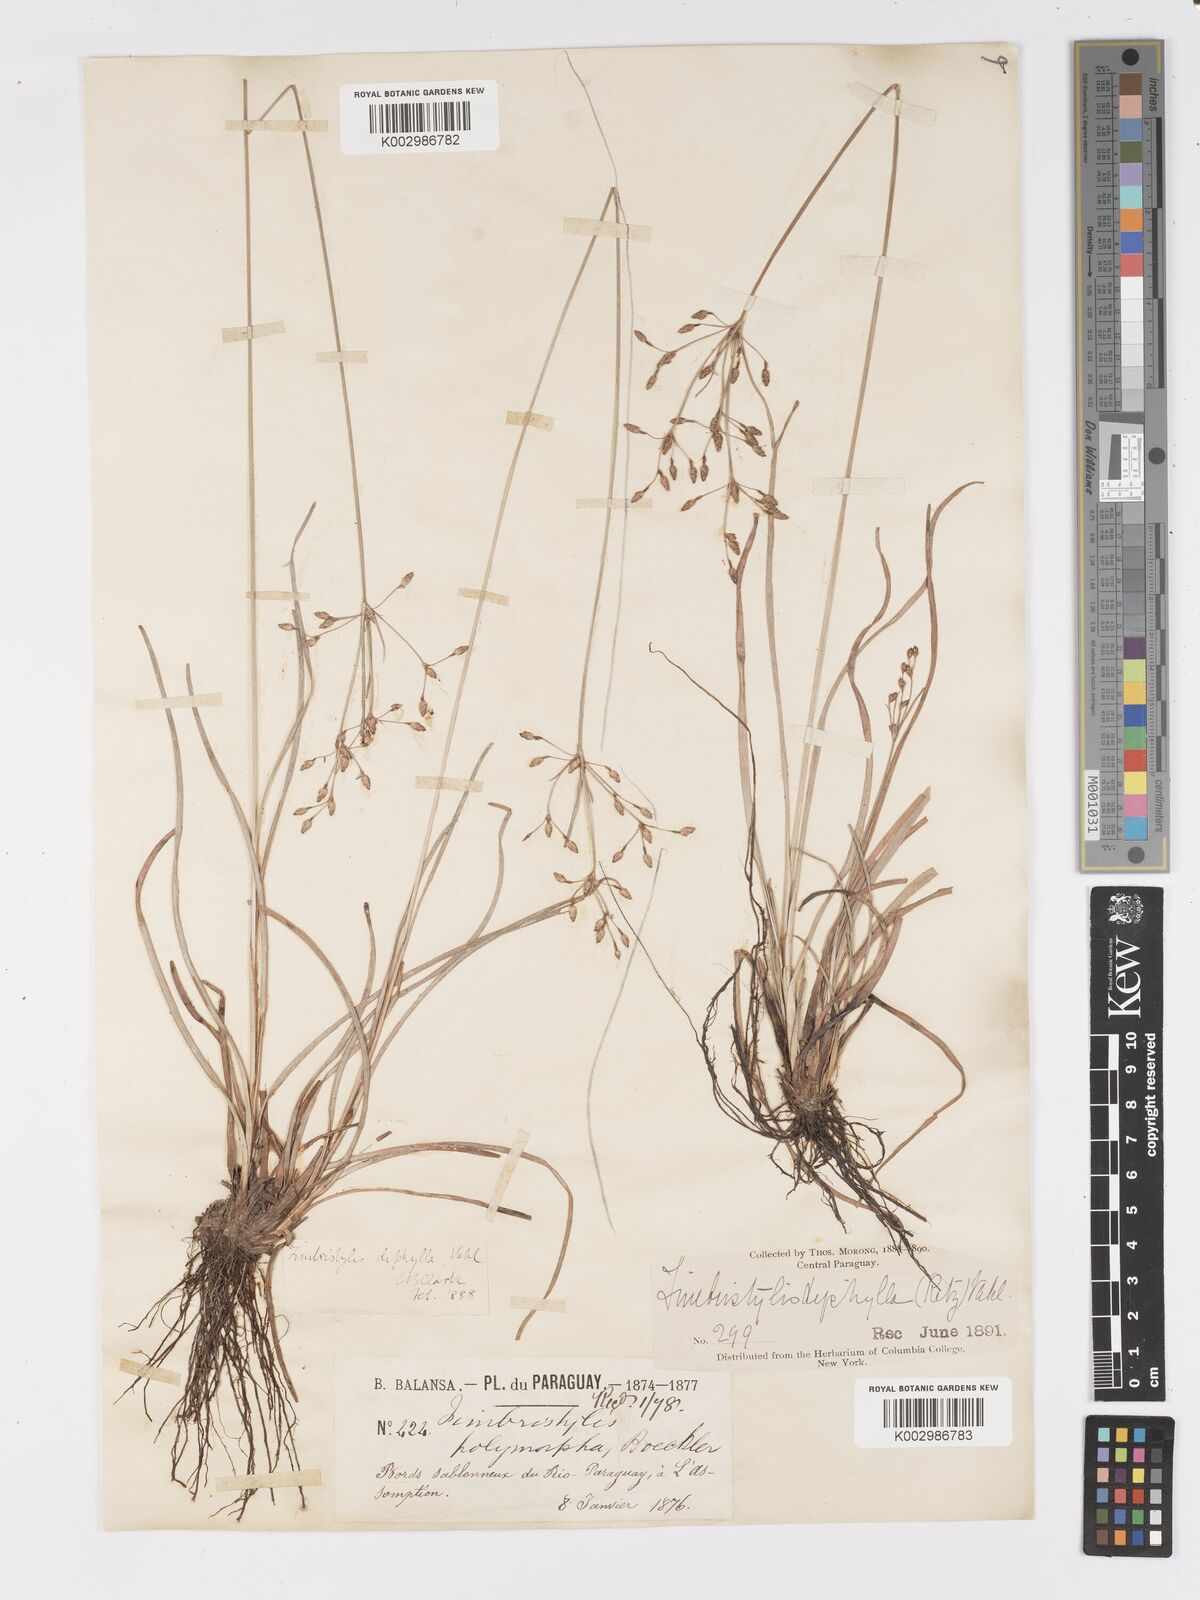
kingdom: Plantae
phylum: Tracheophyta
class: Liliopsida
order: Poales
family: Cyperaceae
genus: Fimbristylis
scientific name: Fimbristylis dichotoma
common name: Forked fimbry
